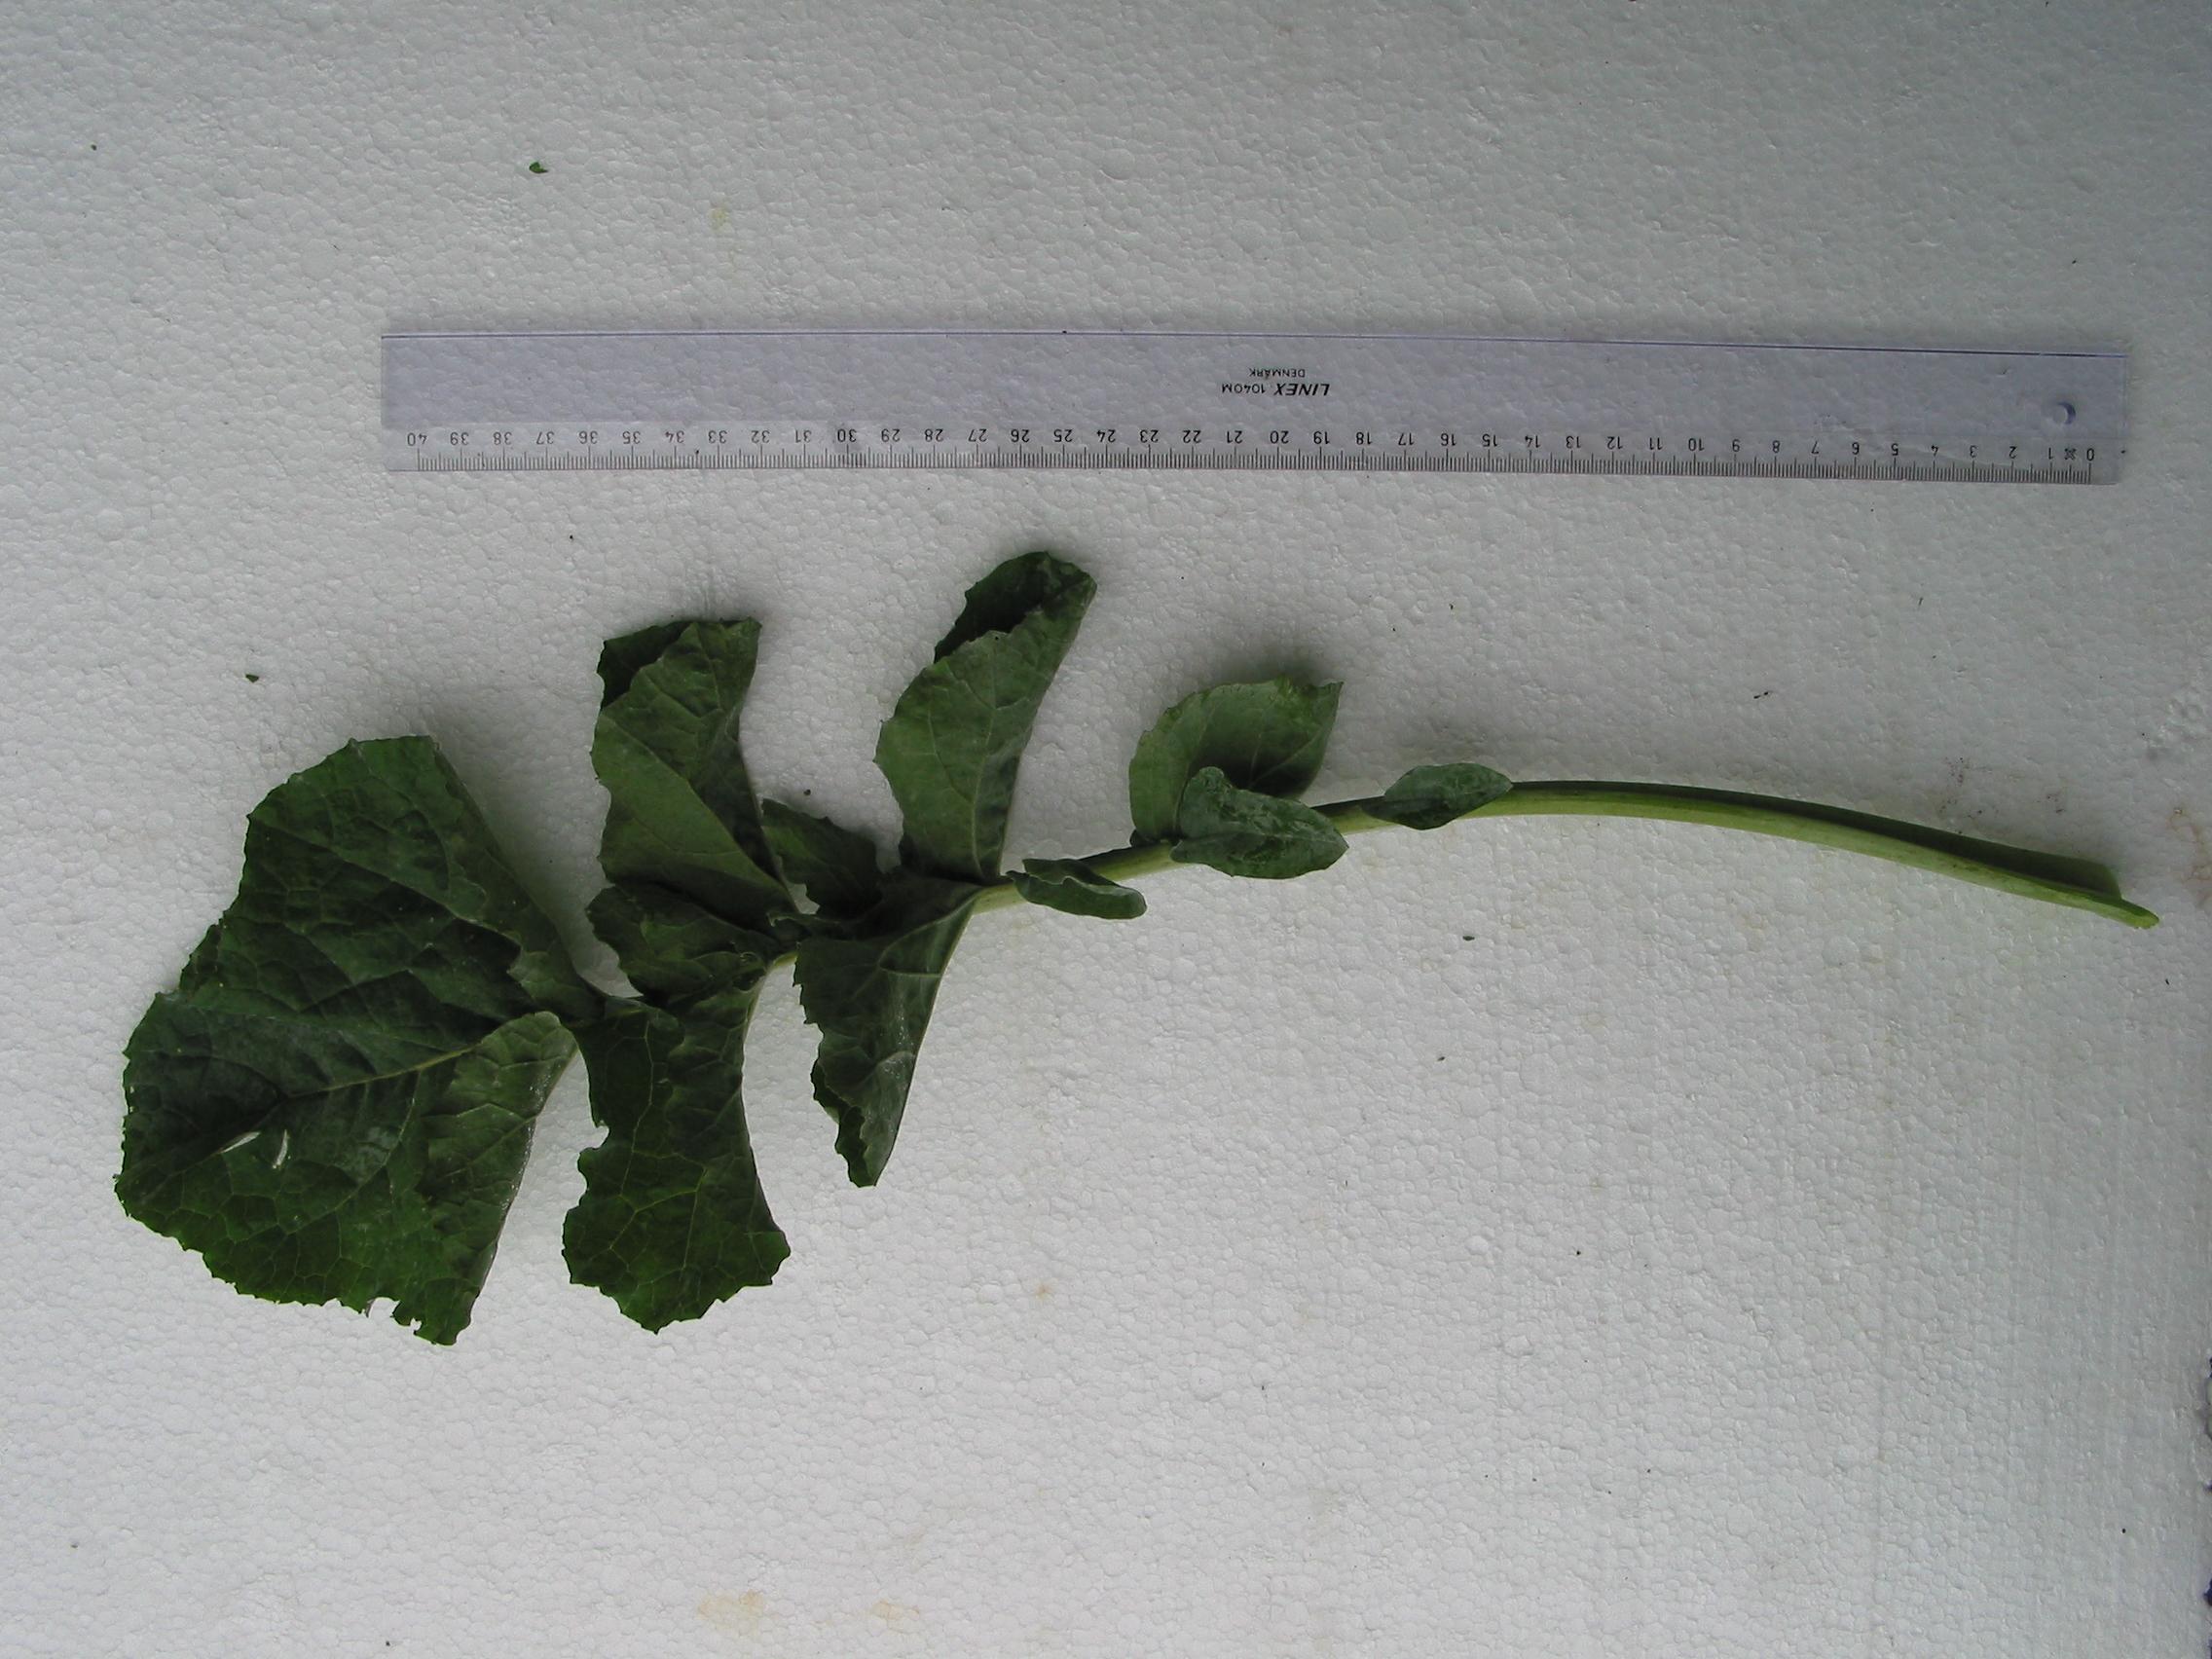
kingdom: Plantae
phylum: Tracheophyta
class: Magnoliopsida
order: Brassicales
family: Brassicaceae
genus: Brassica
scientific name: Brassica napus
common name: Rape
